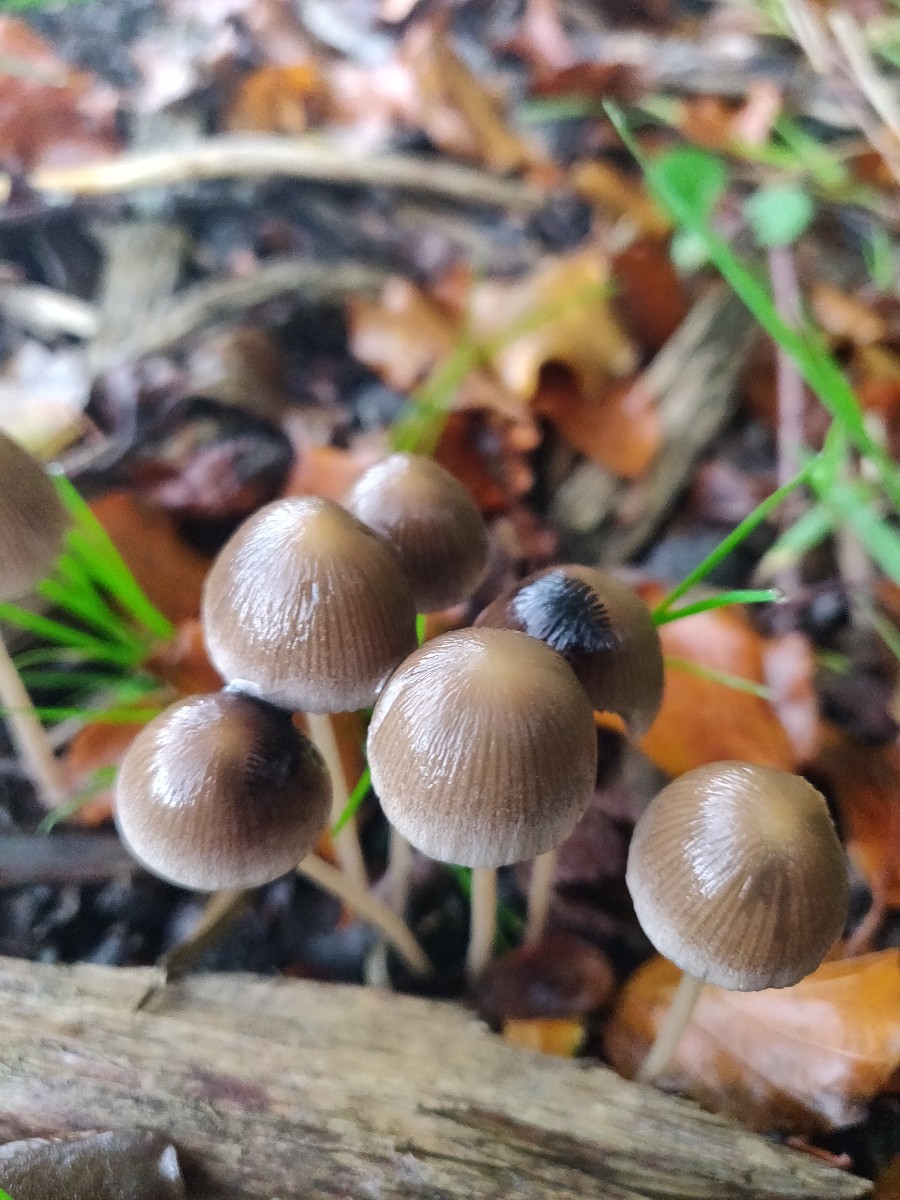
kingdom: Fungi
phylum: Basidiomycota
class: Agaricomycetes
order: Agaricales
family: Psathyrellaceae
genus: Psathyrella
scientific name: Psathyrella
